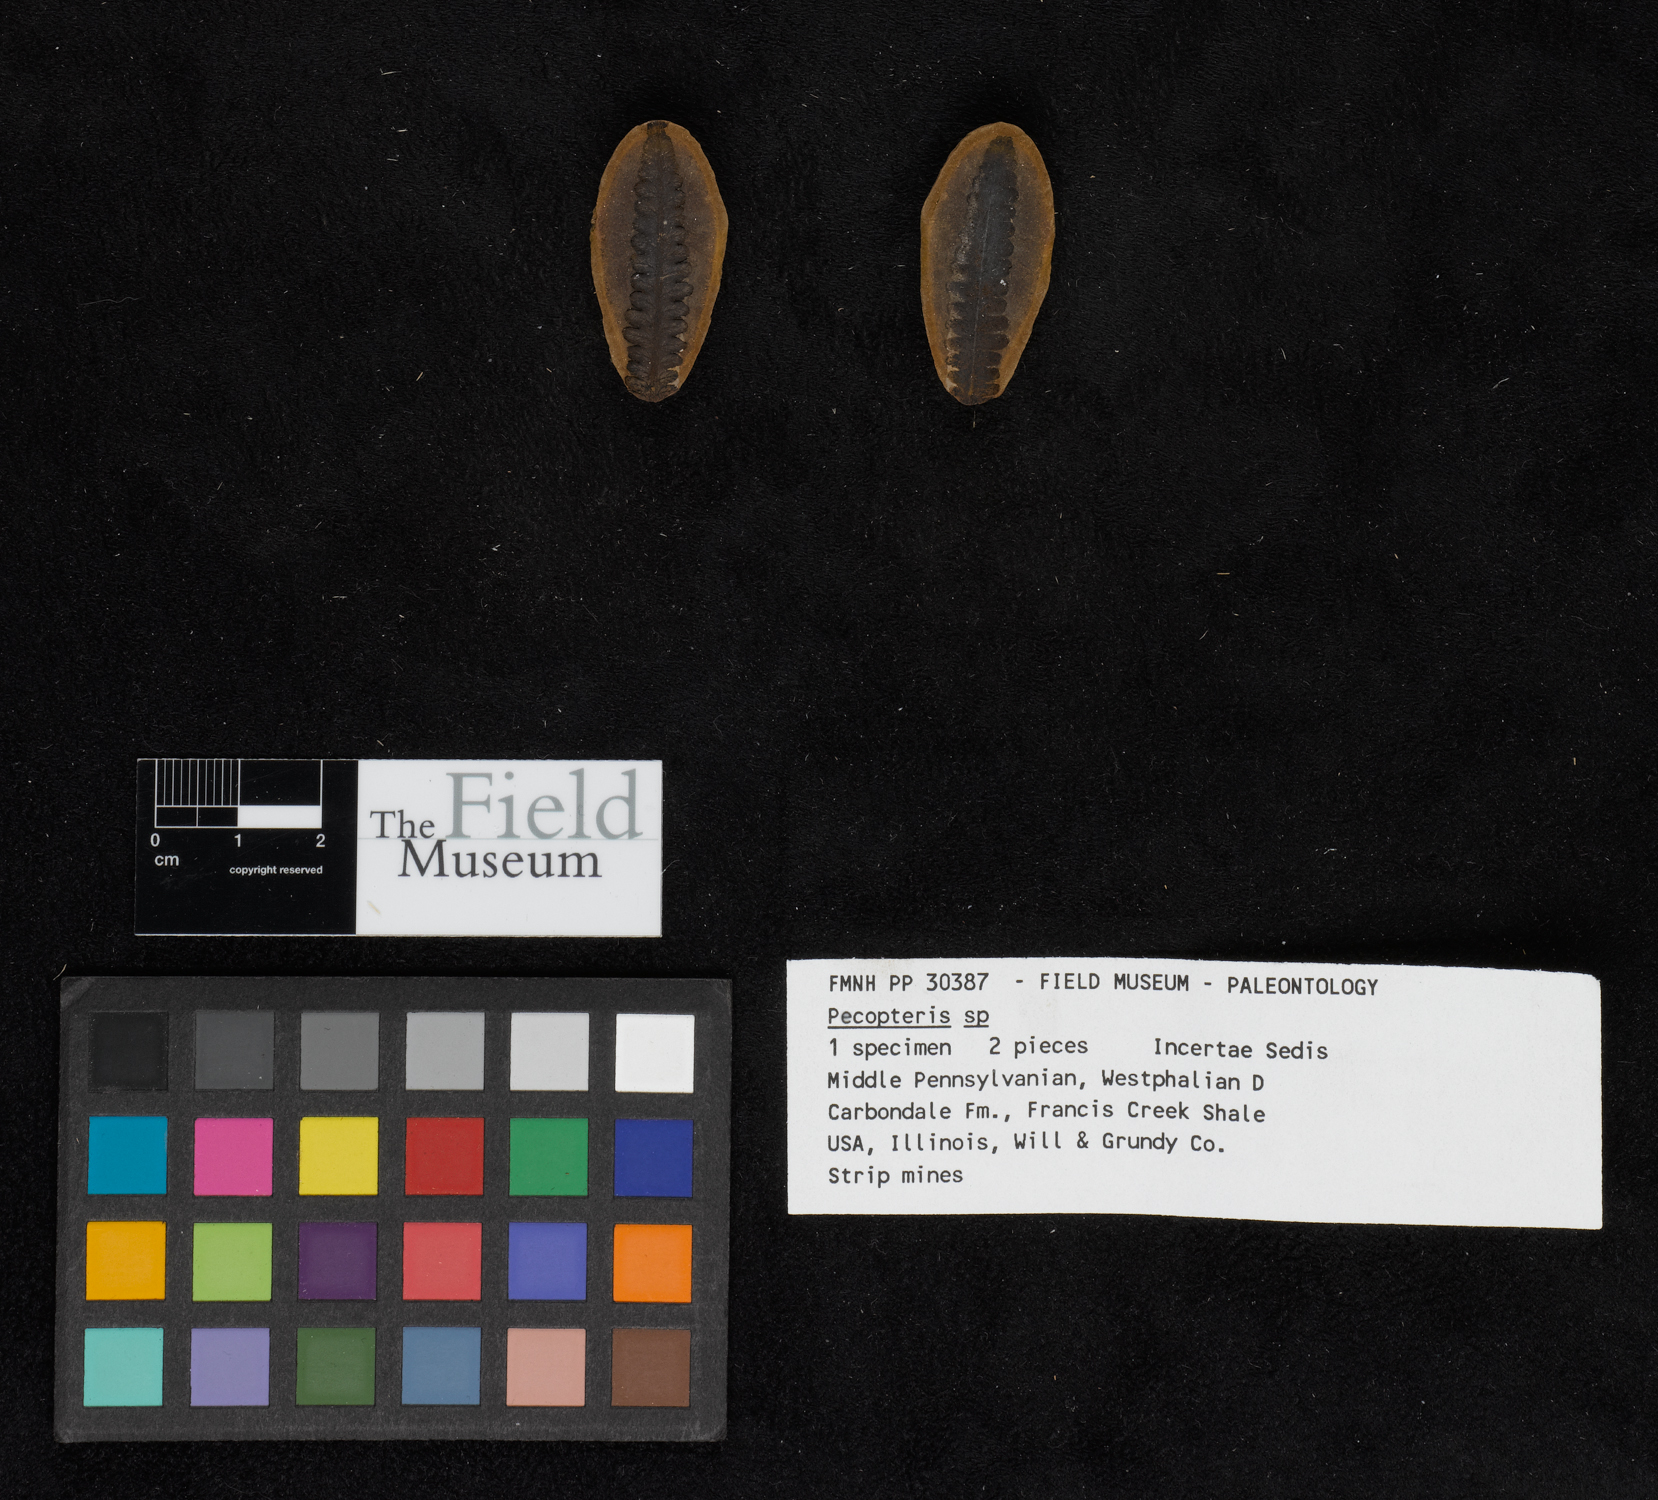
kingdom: Plantae
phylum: Tracheophyta
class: Polypodiopsida
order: Marattiales
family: Asterothecaceae
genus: Pecopteris
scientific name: Pecopteris
